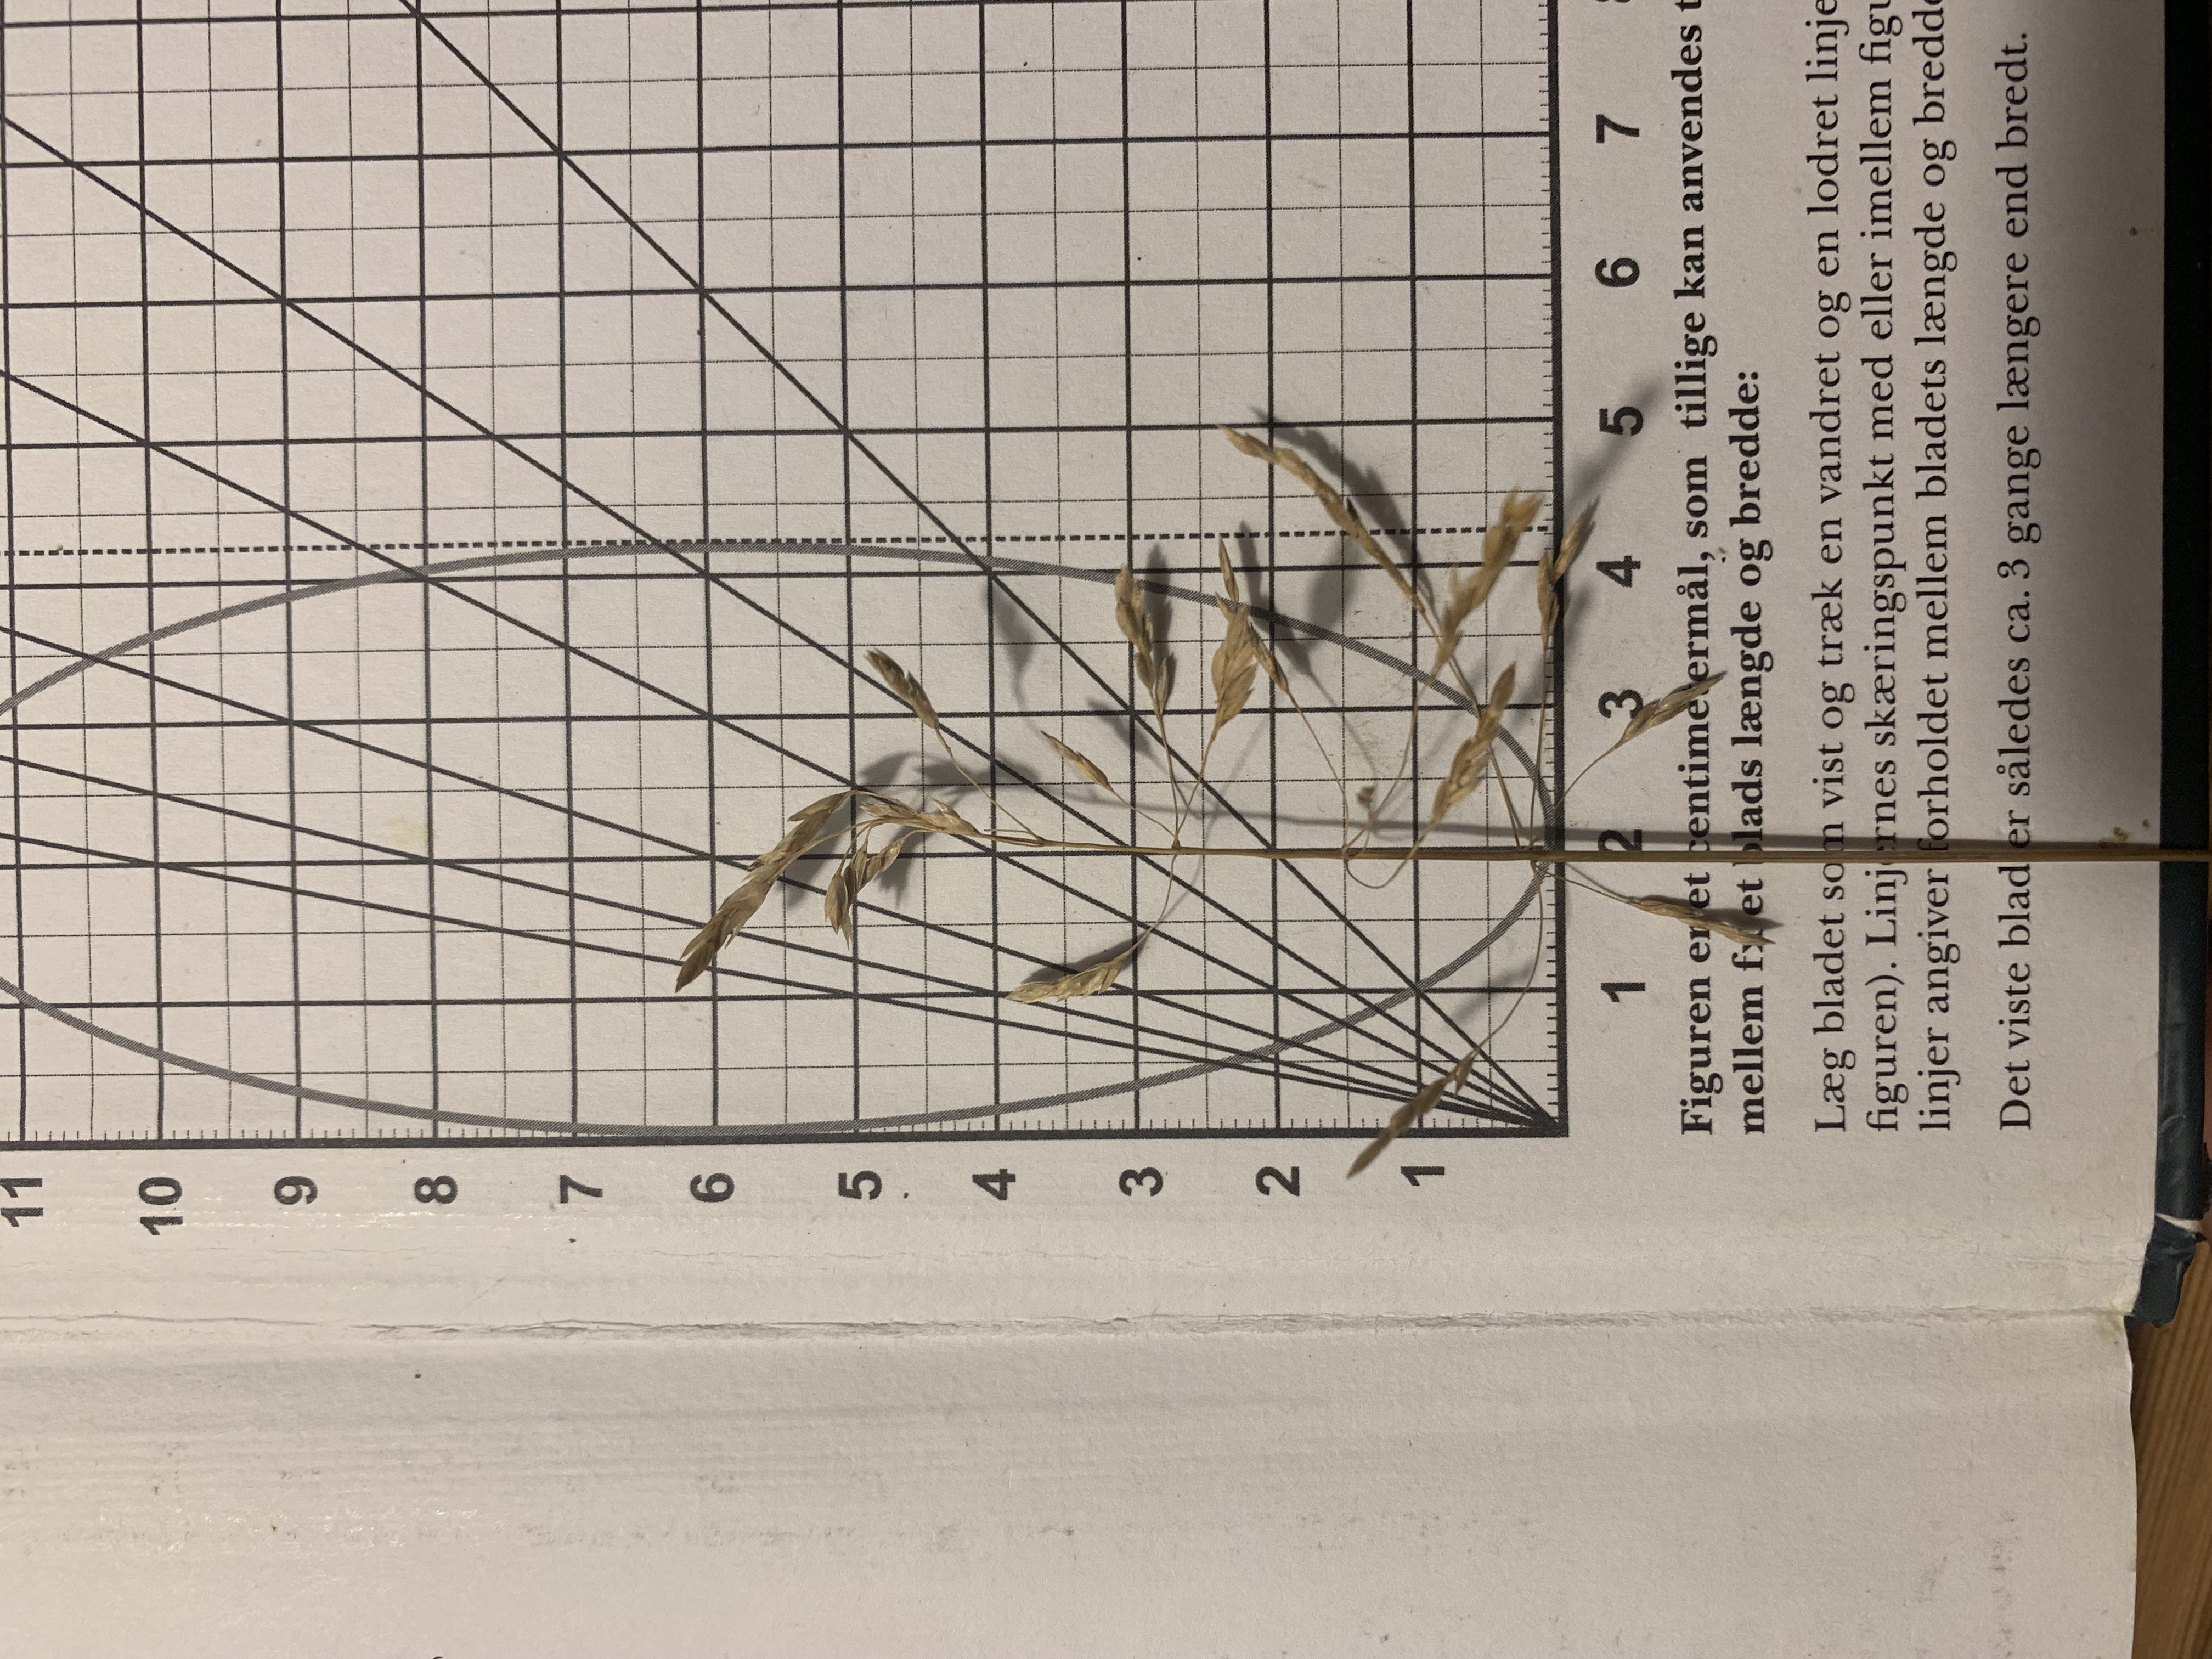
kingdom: Plantae
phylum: Tracheophyta
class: Liliopsida
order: Poales
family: Poaceae
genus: Poa
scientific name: Poa pratensis
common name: Eng-rapgræs
